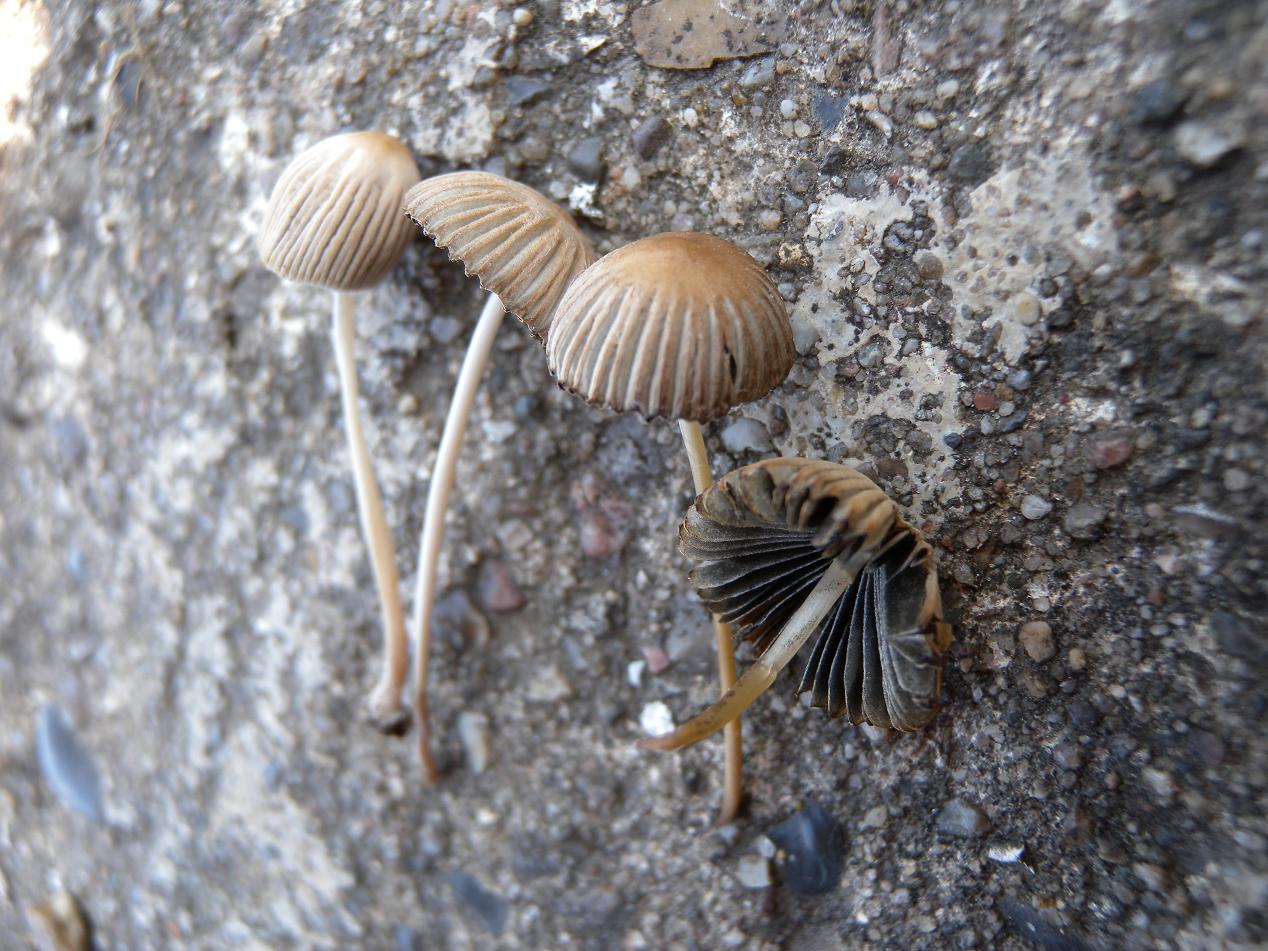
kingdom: Fungi
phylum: Basidiomycota
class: Agaricomycetes
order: Agaricales
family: Psathyrellaceae
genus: Parasola
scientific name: Parasola schroeteri
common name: bredsporet hjulhat
